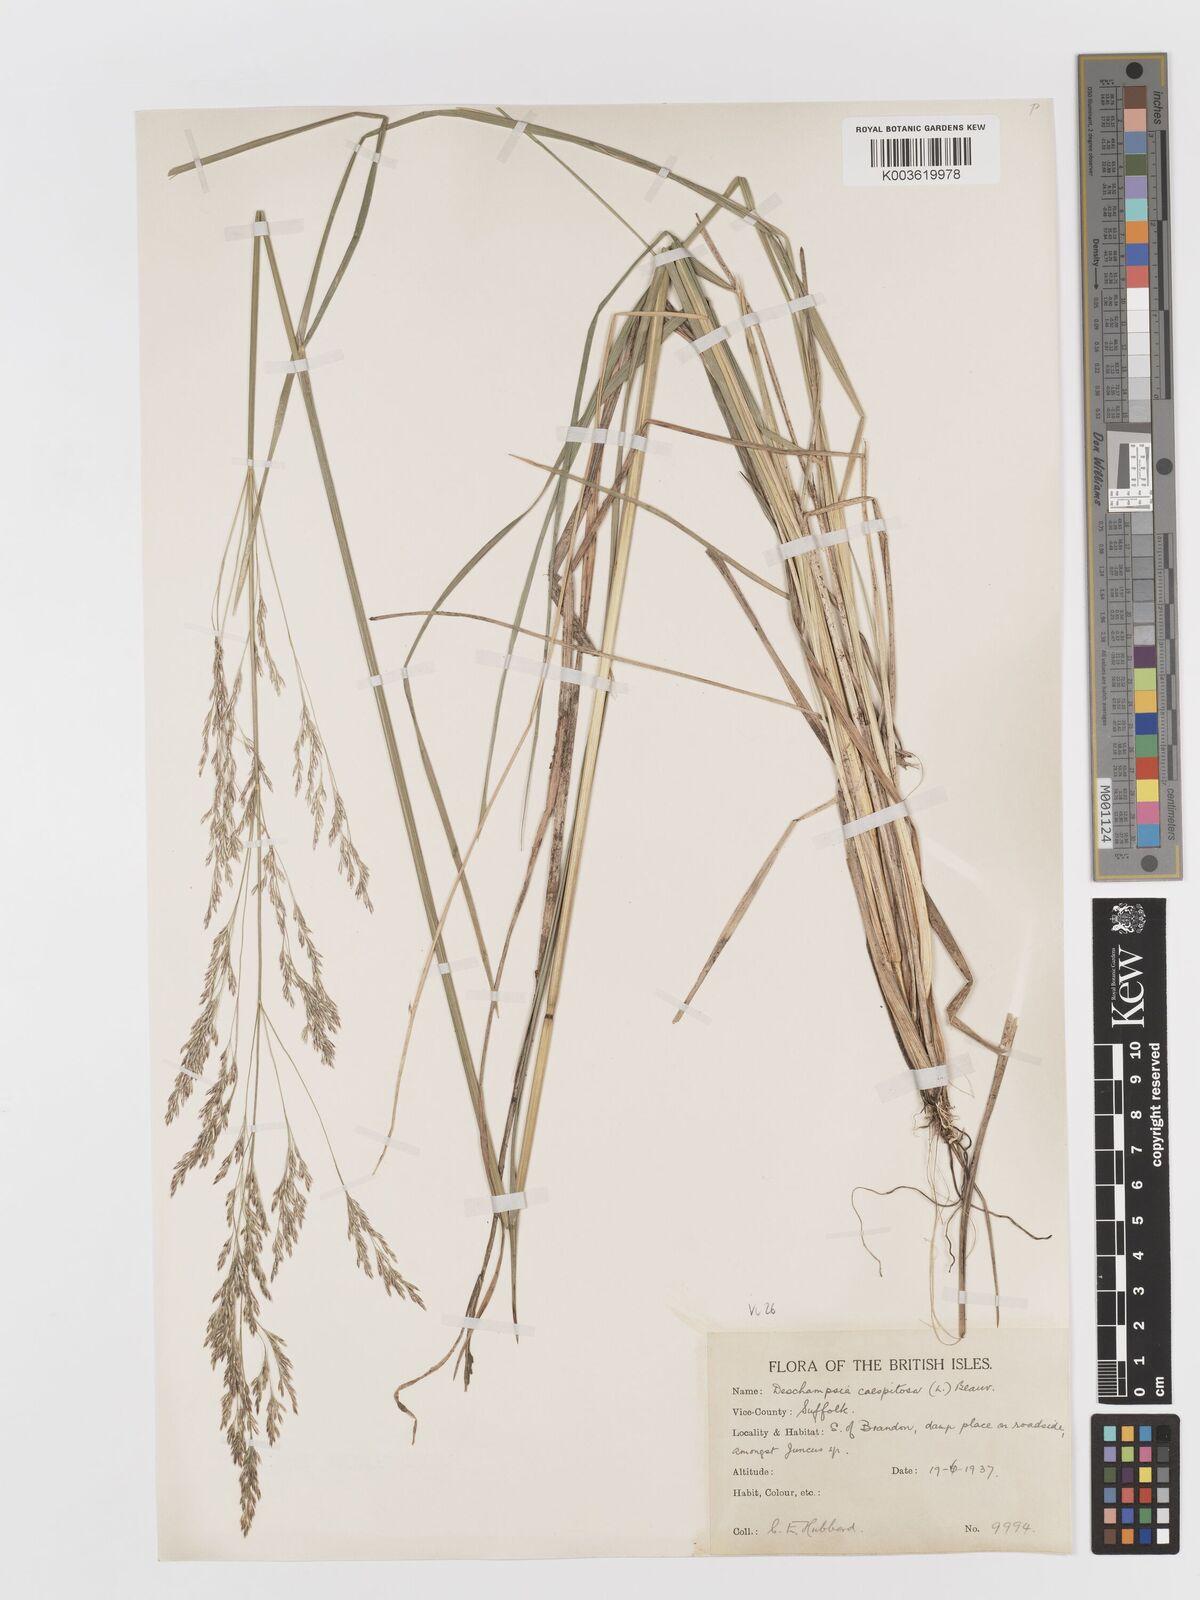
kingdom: Plantae
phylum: Tracheophyta
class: Liliopsida
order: Poales
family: Poaceae
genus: Deschampsia
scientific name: Deschampsia cespitosa
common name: Tufted hair-grass
